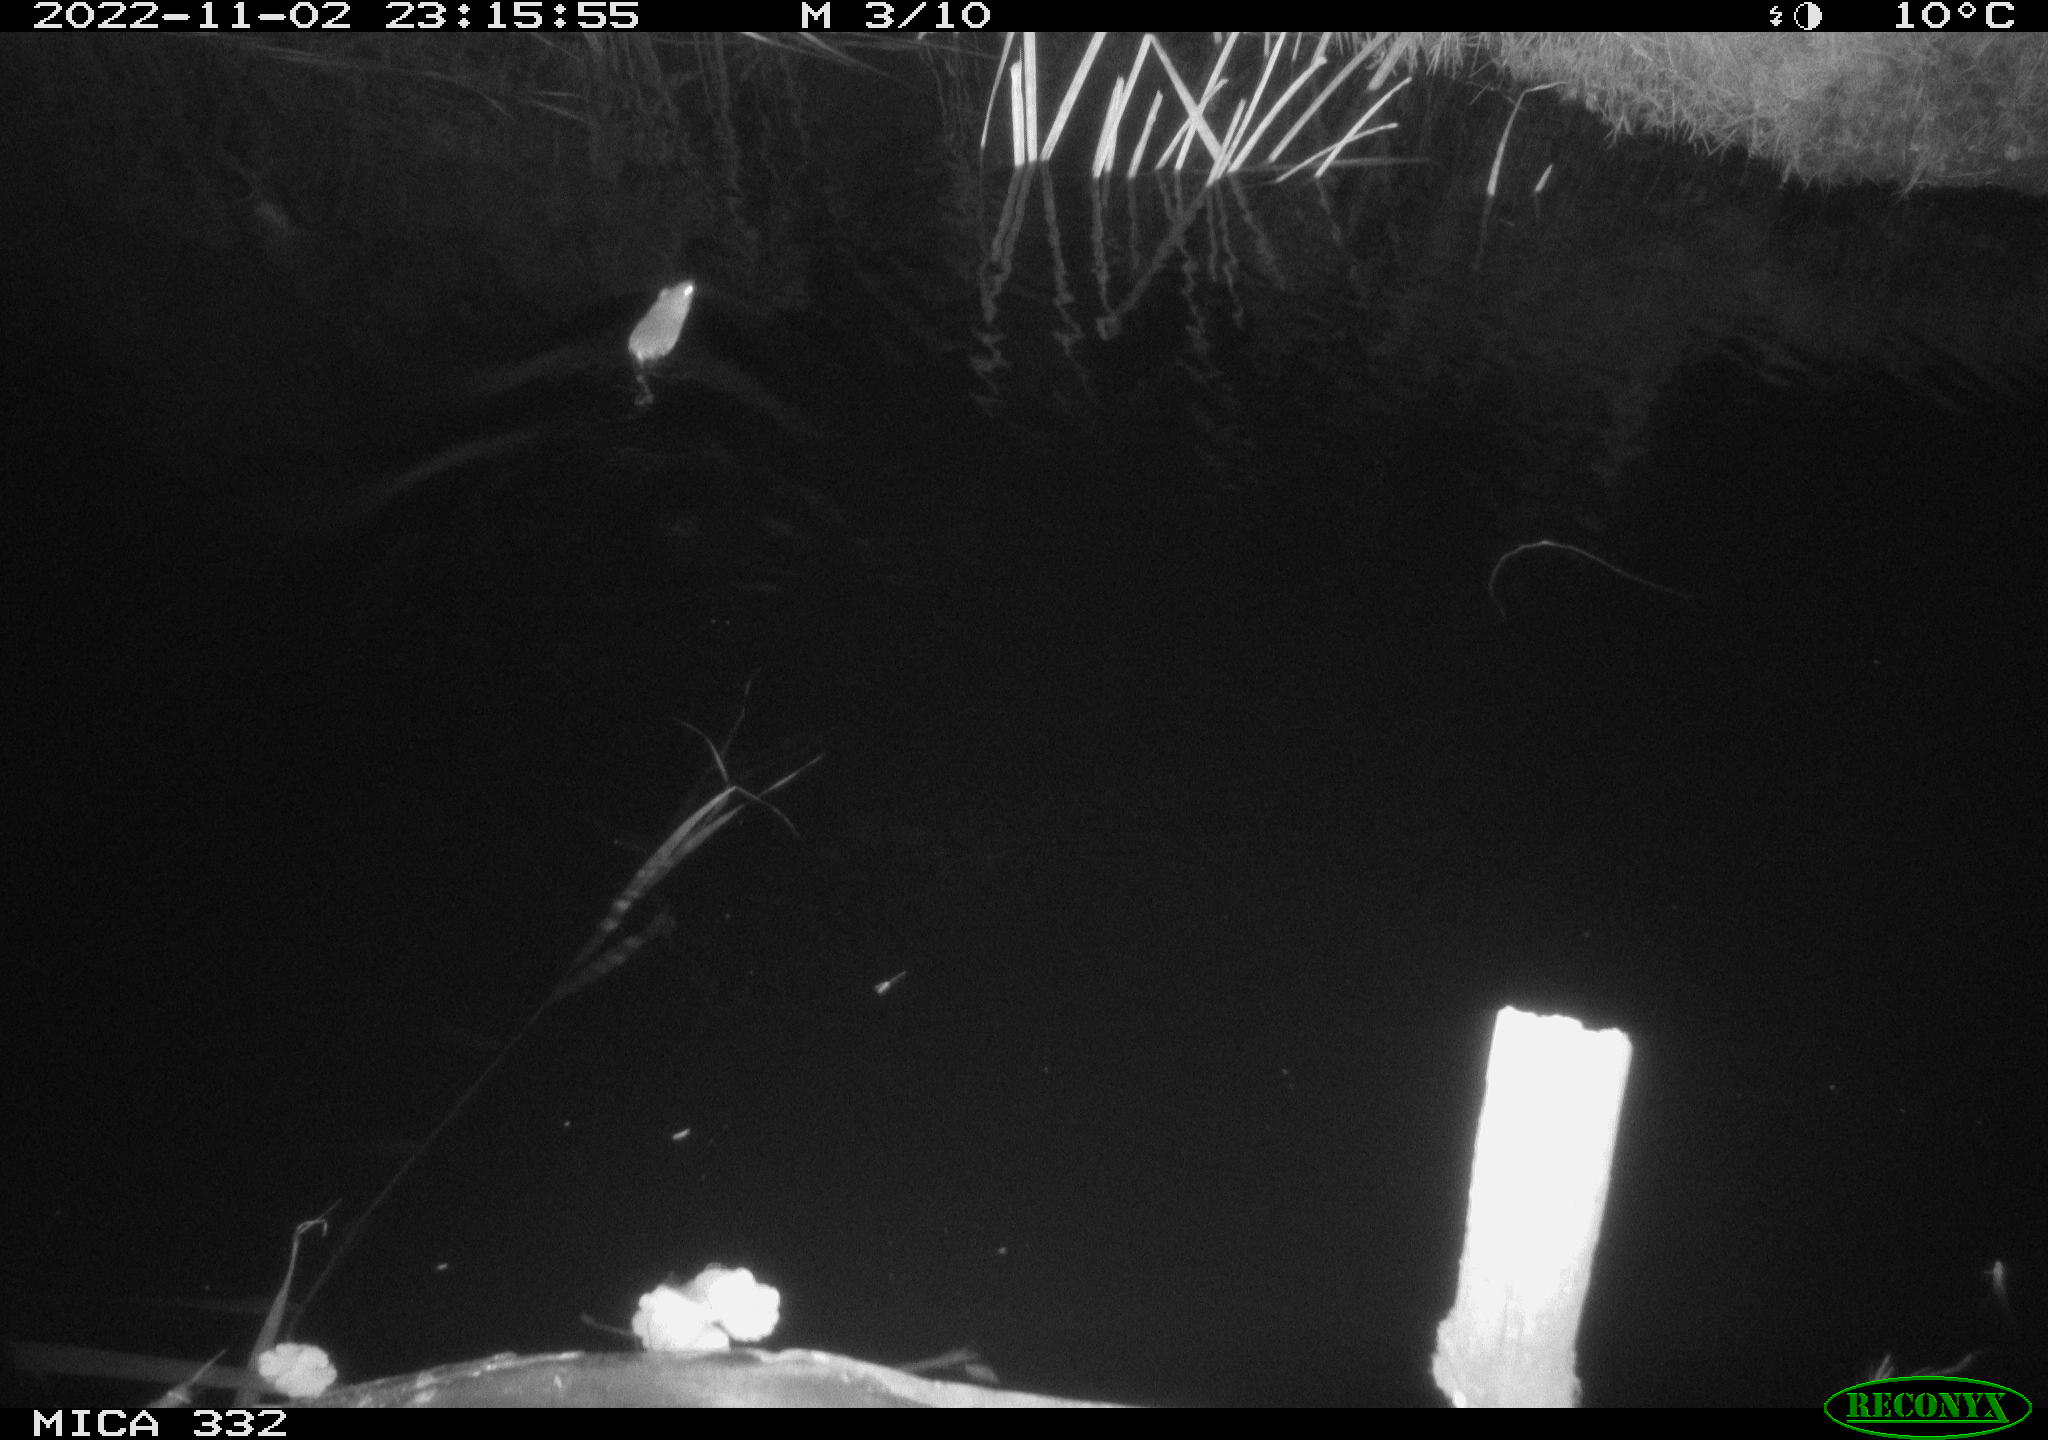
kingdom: Animalia
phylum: Chordata
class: Mammalia
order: Rodentia
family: Muridae
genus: Rattus
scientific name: Rattus norvegicus
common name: Brown rat
